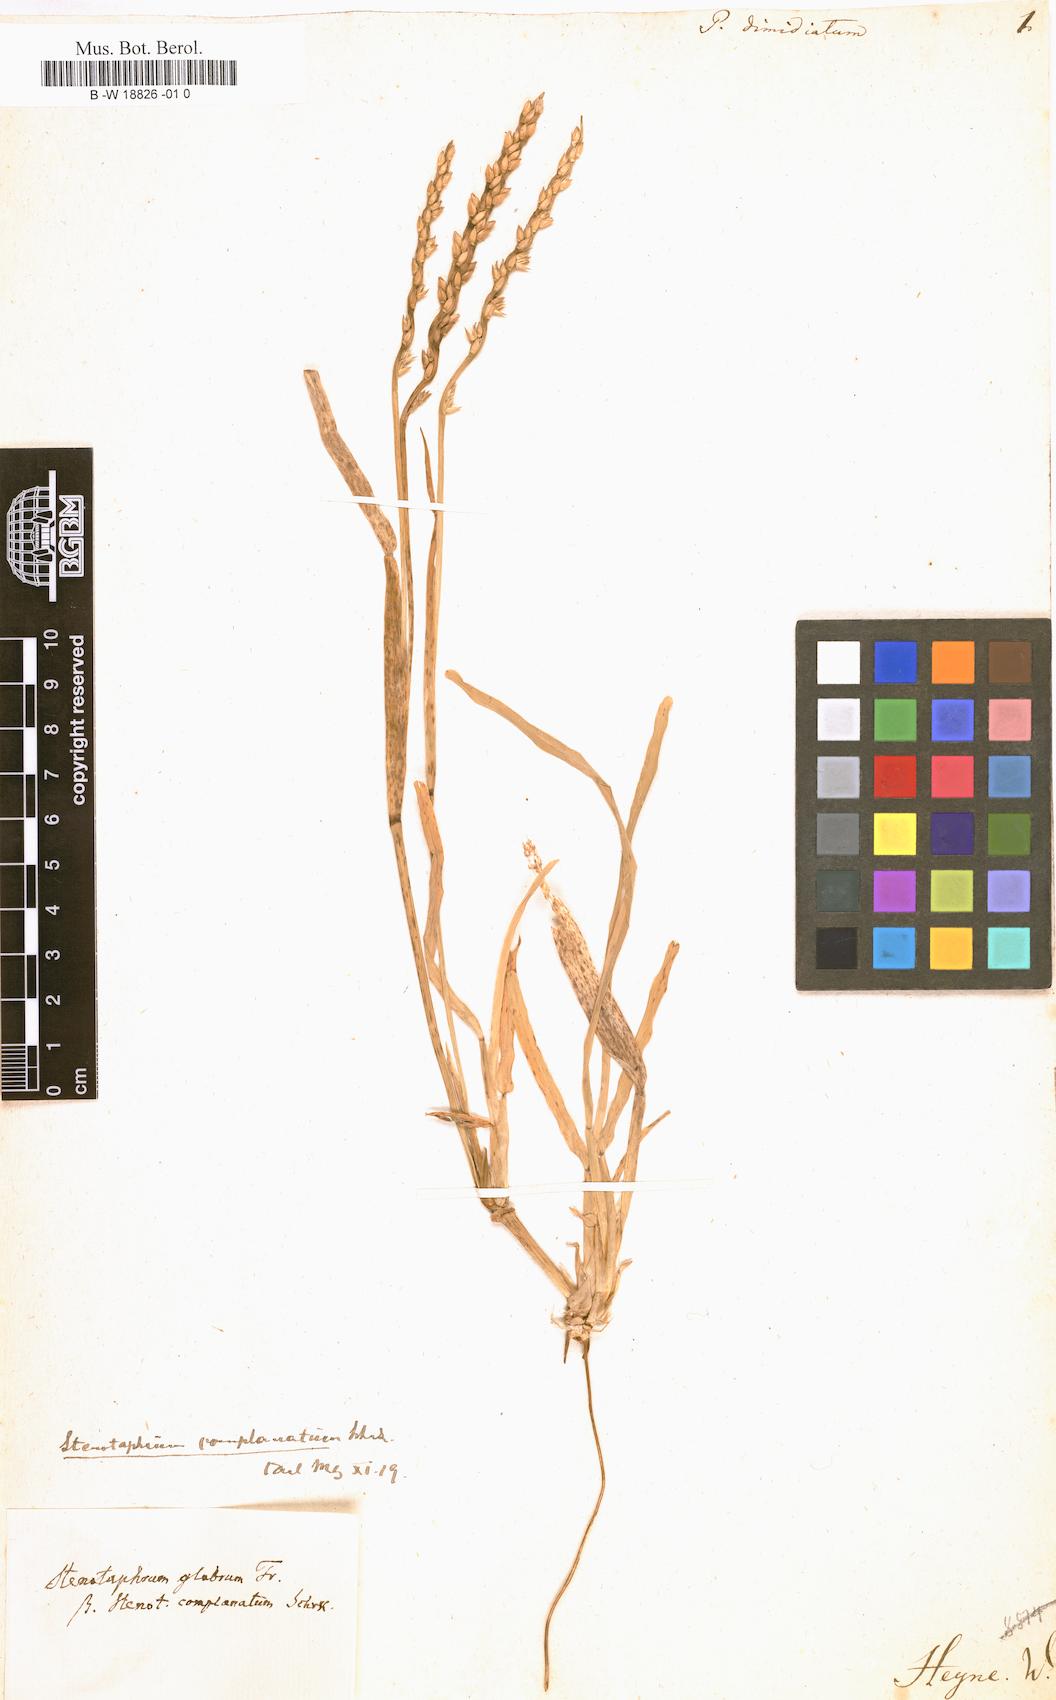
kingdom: Plantae
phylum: Tracheophyta
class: Liliopsida
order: Poales
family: Poaceae
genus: Stenotaphrum
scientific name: Stenotaphrum dimidiatum
